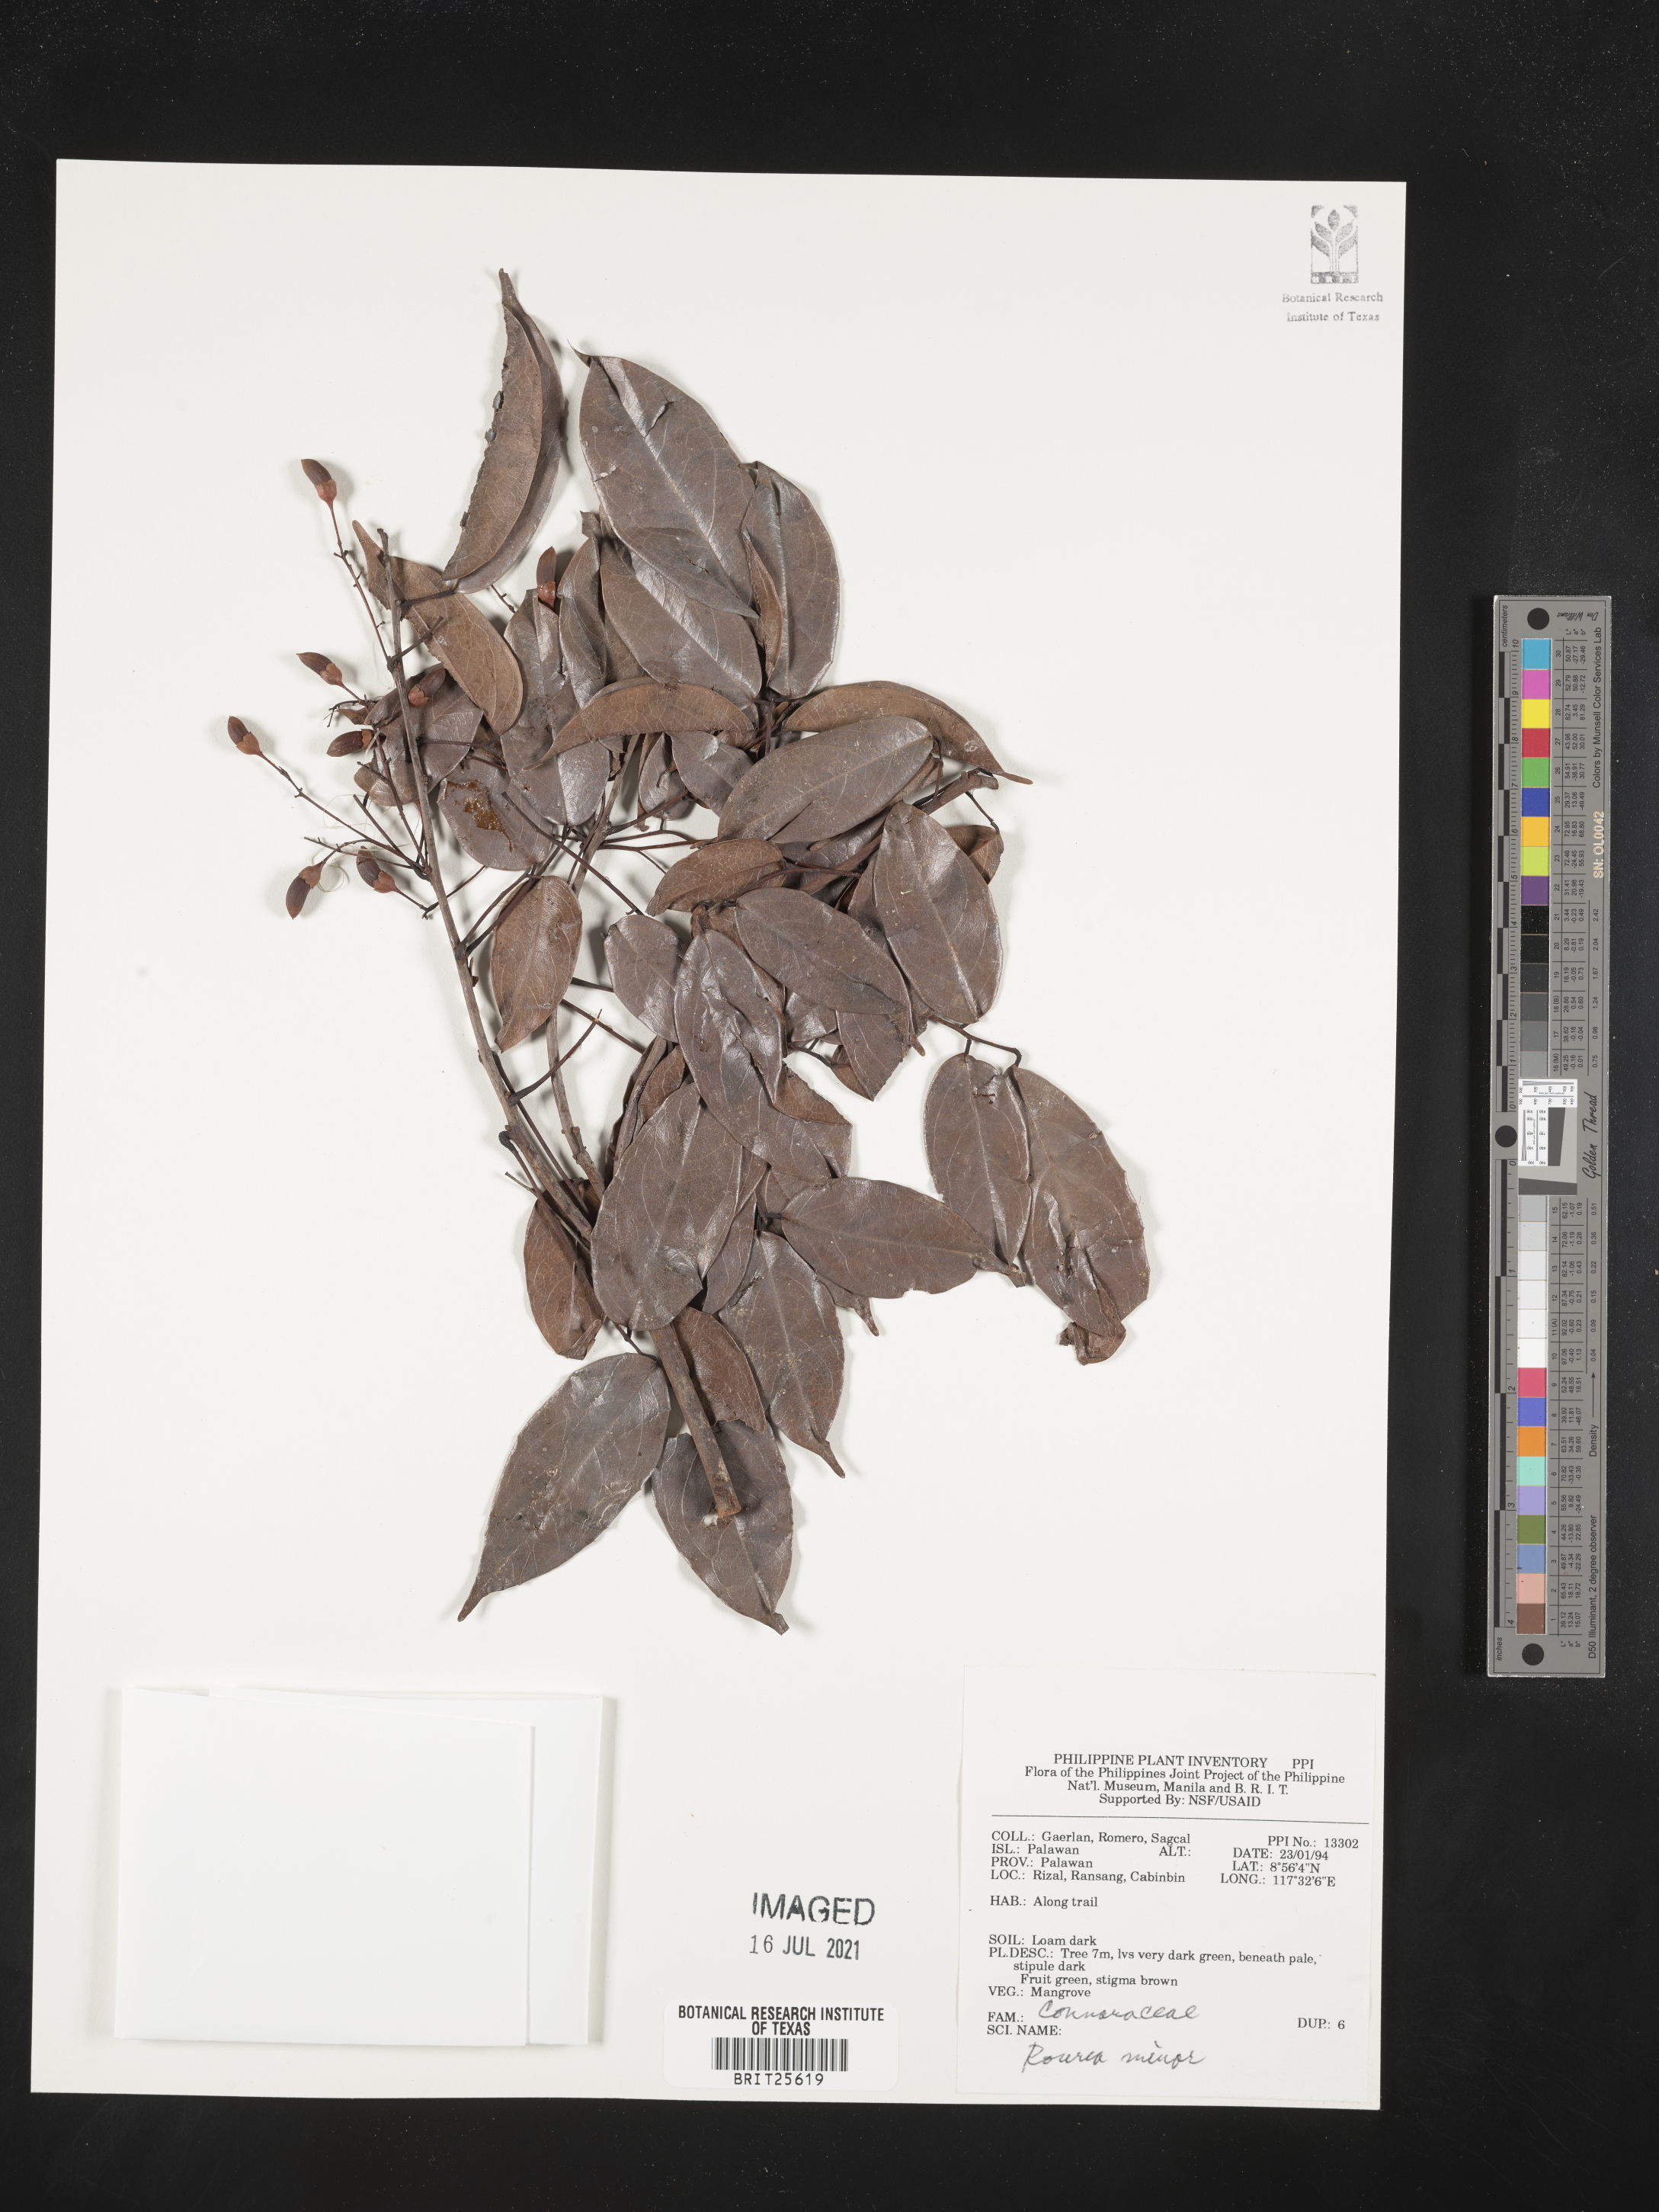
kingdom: Plantae
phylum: Tracheophyta
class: Magnoliopsida
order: Oxalidales
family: Connaraceae
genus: Rourea
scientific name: Rourea minor
